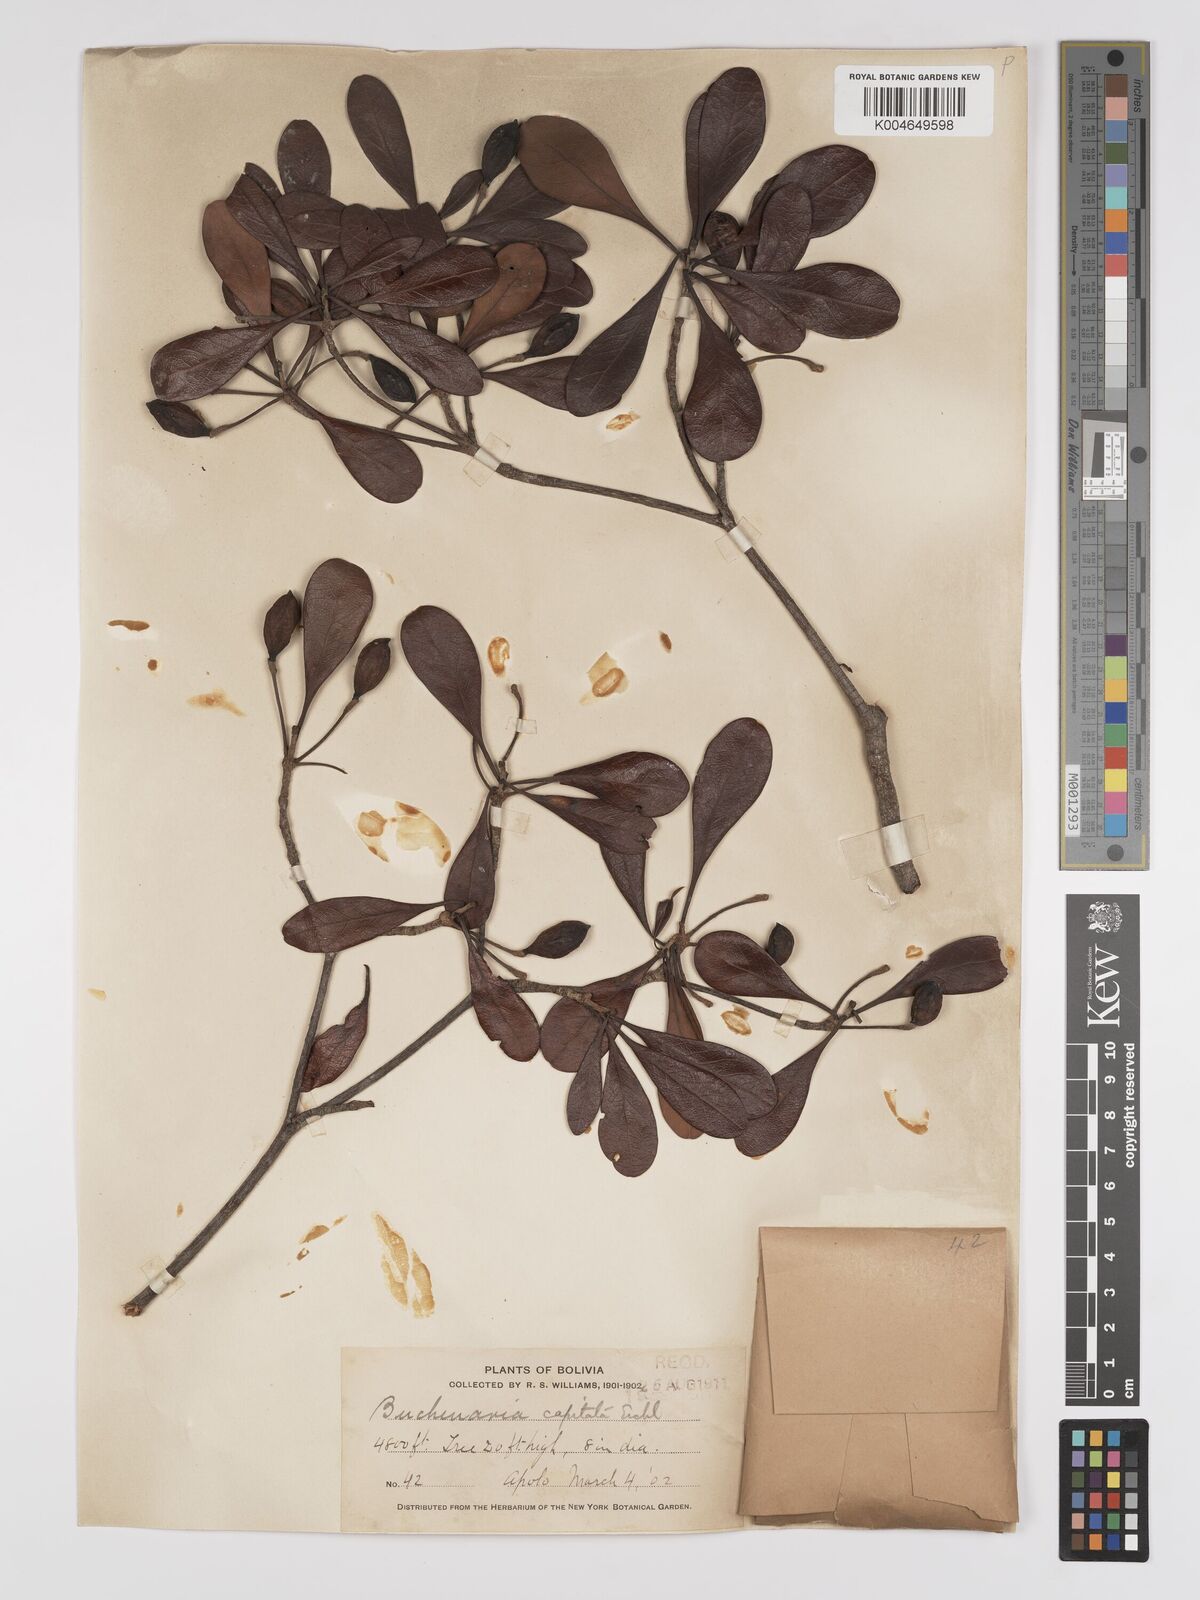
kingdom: Plantae
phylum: Tracheophyta
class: Magnoliopsida
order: Myrtales
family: Combretaceae
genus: Terminalia
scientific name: Terminalia tetraphylla
